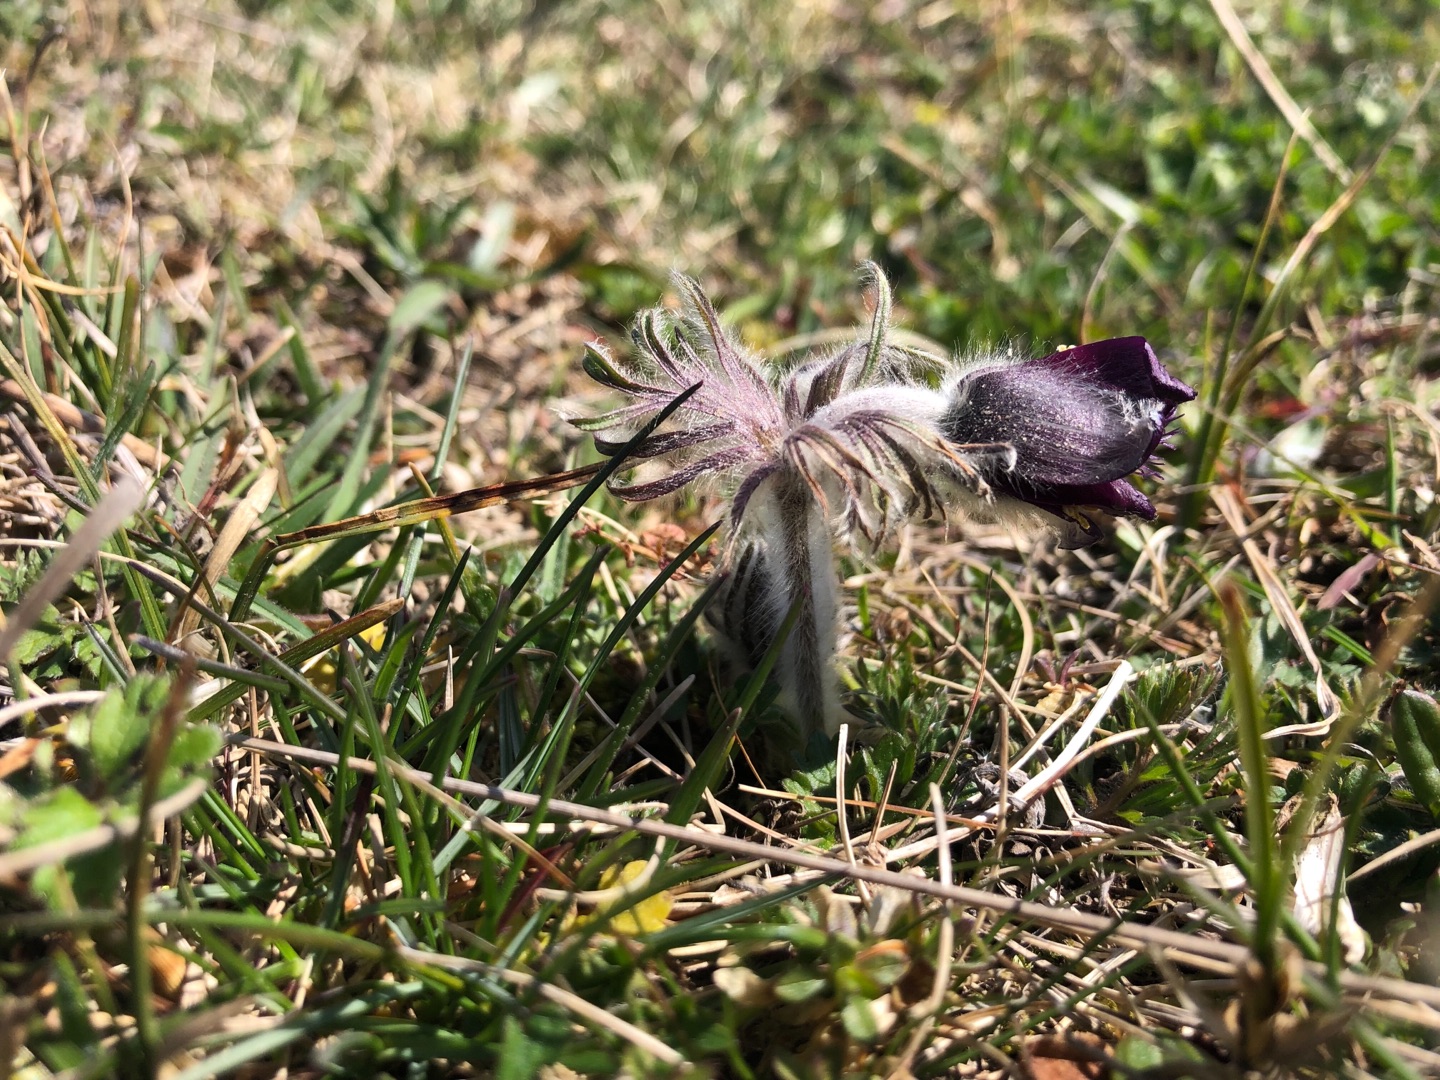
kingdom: Plantae
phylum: Tracheophyta
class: Magnoliopsida
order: Ranunculales
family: Ranunculaceae
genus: Pulsatilla
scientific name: Pulsatilla pratensis
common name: Nikkende kobjælde
